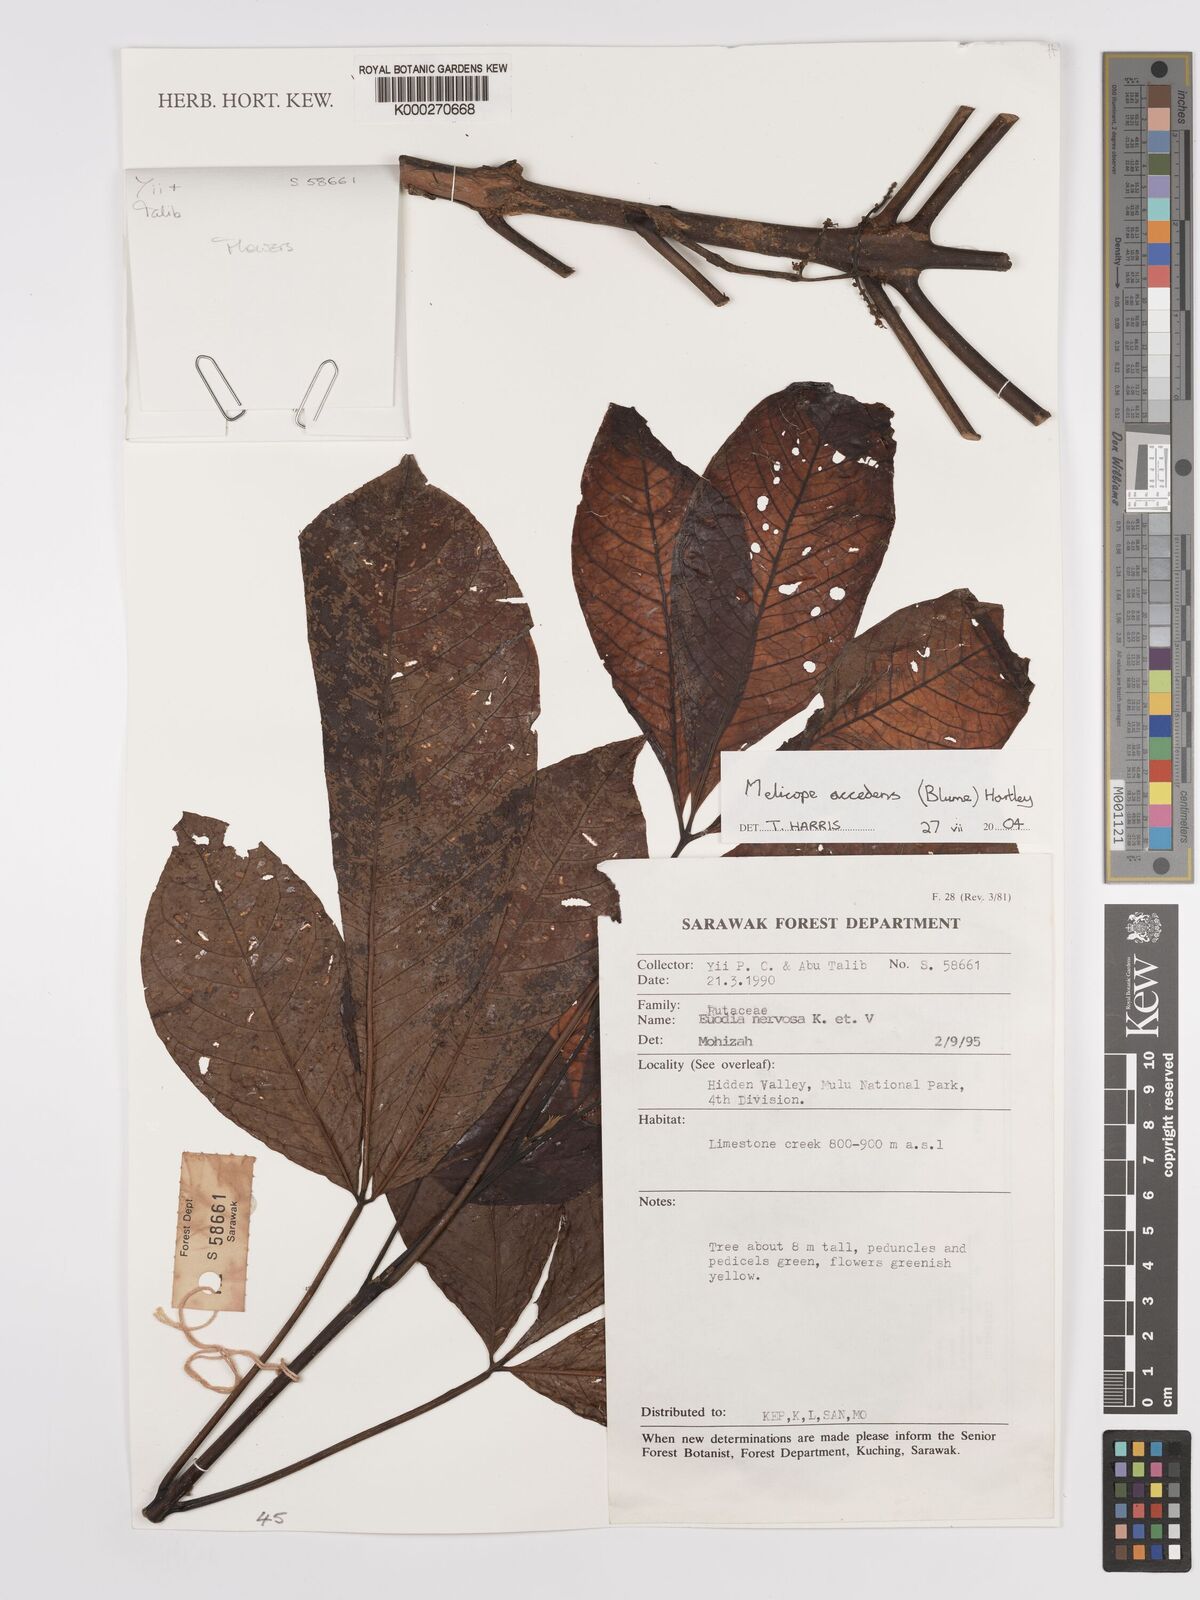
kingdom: Plantae
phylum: Tracheophyta
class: Magnoliopsida
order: Sapindales
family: Rutaceae
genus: Melicope
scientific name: Melicope accedens
